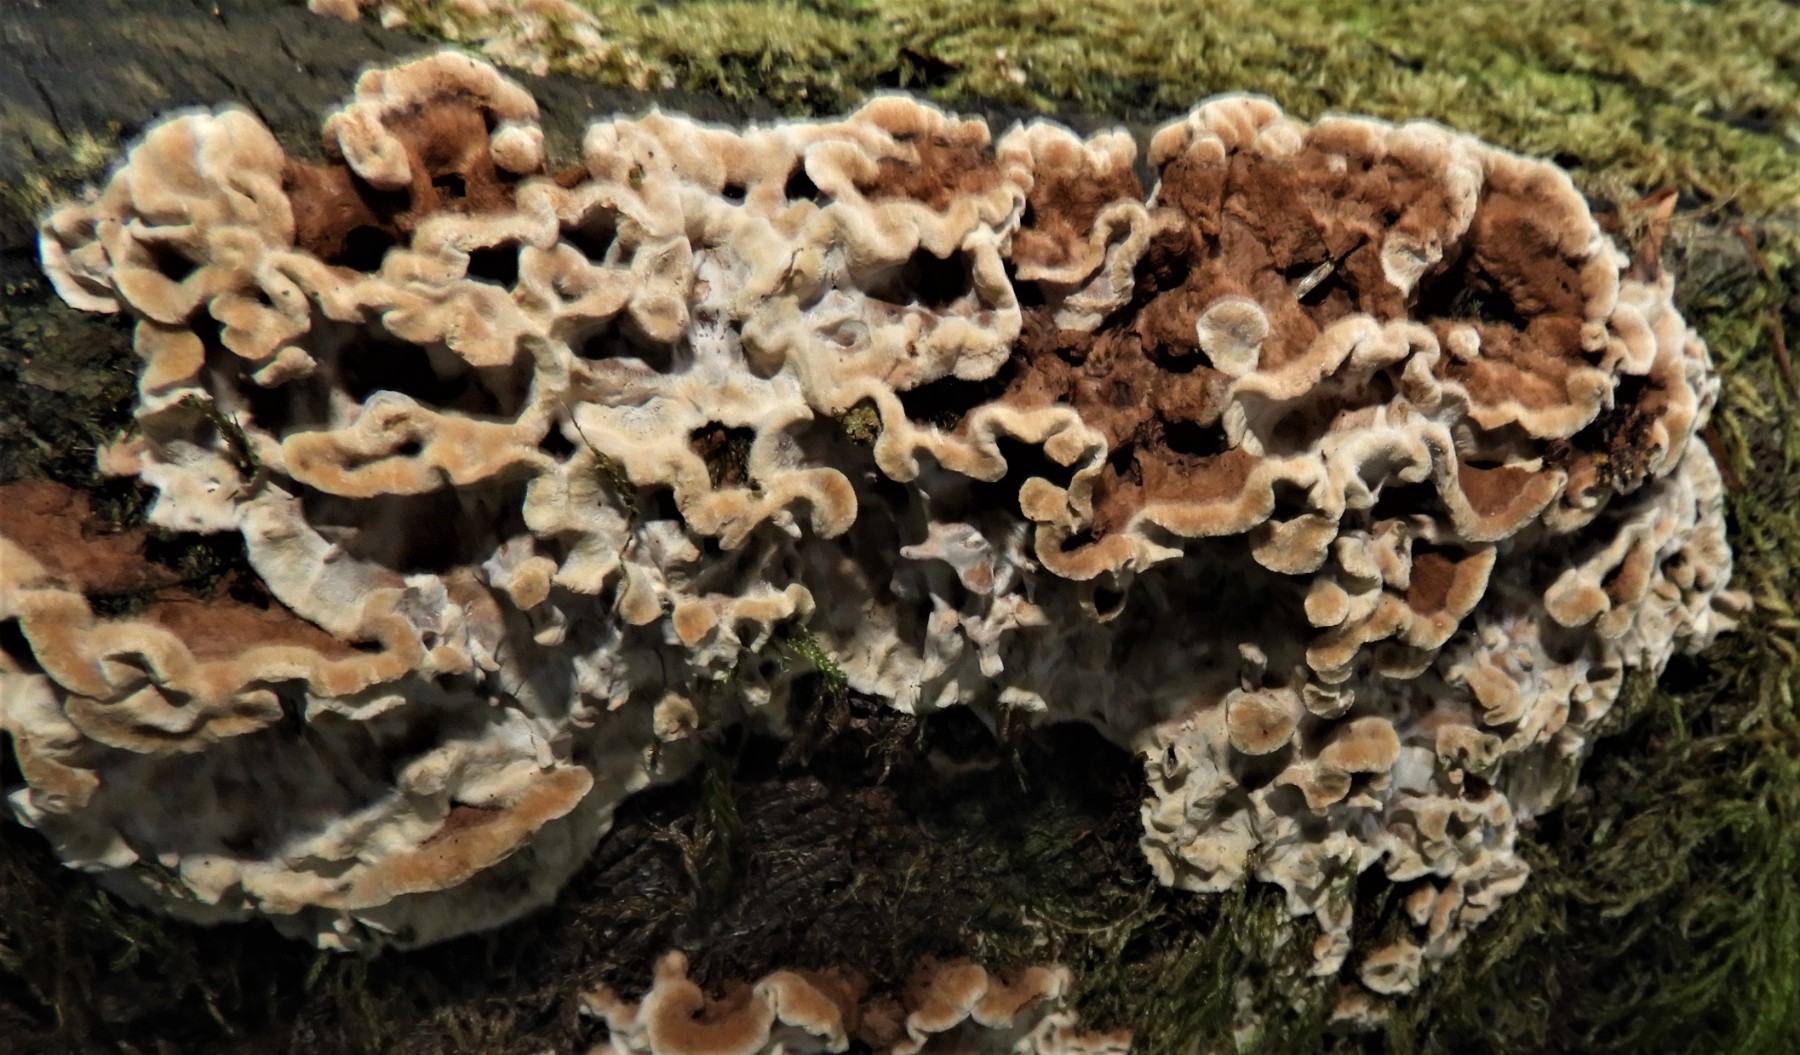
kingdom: Fungi
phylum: Basidiomycota
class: Agaricomycetes
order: Russulales
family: Hericiaceae
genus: Laxitextum
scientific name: Laxitextum bicolor
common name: tvefarvet filtskind
